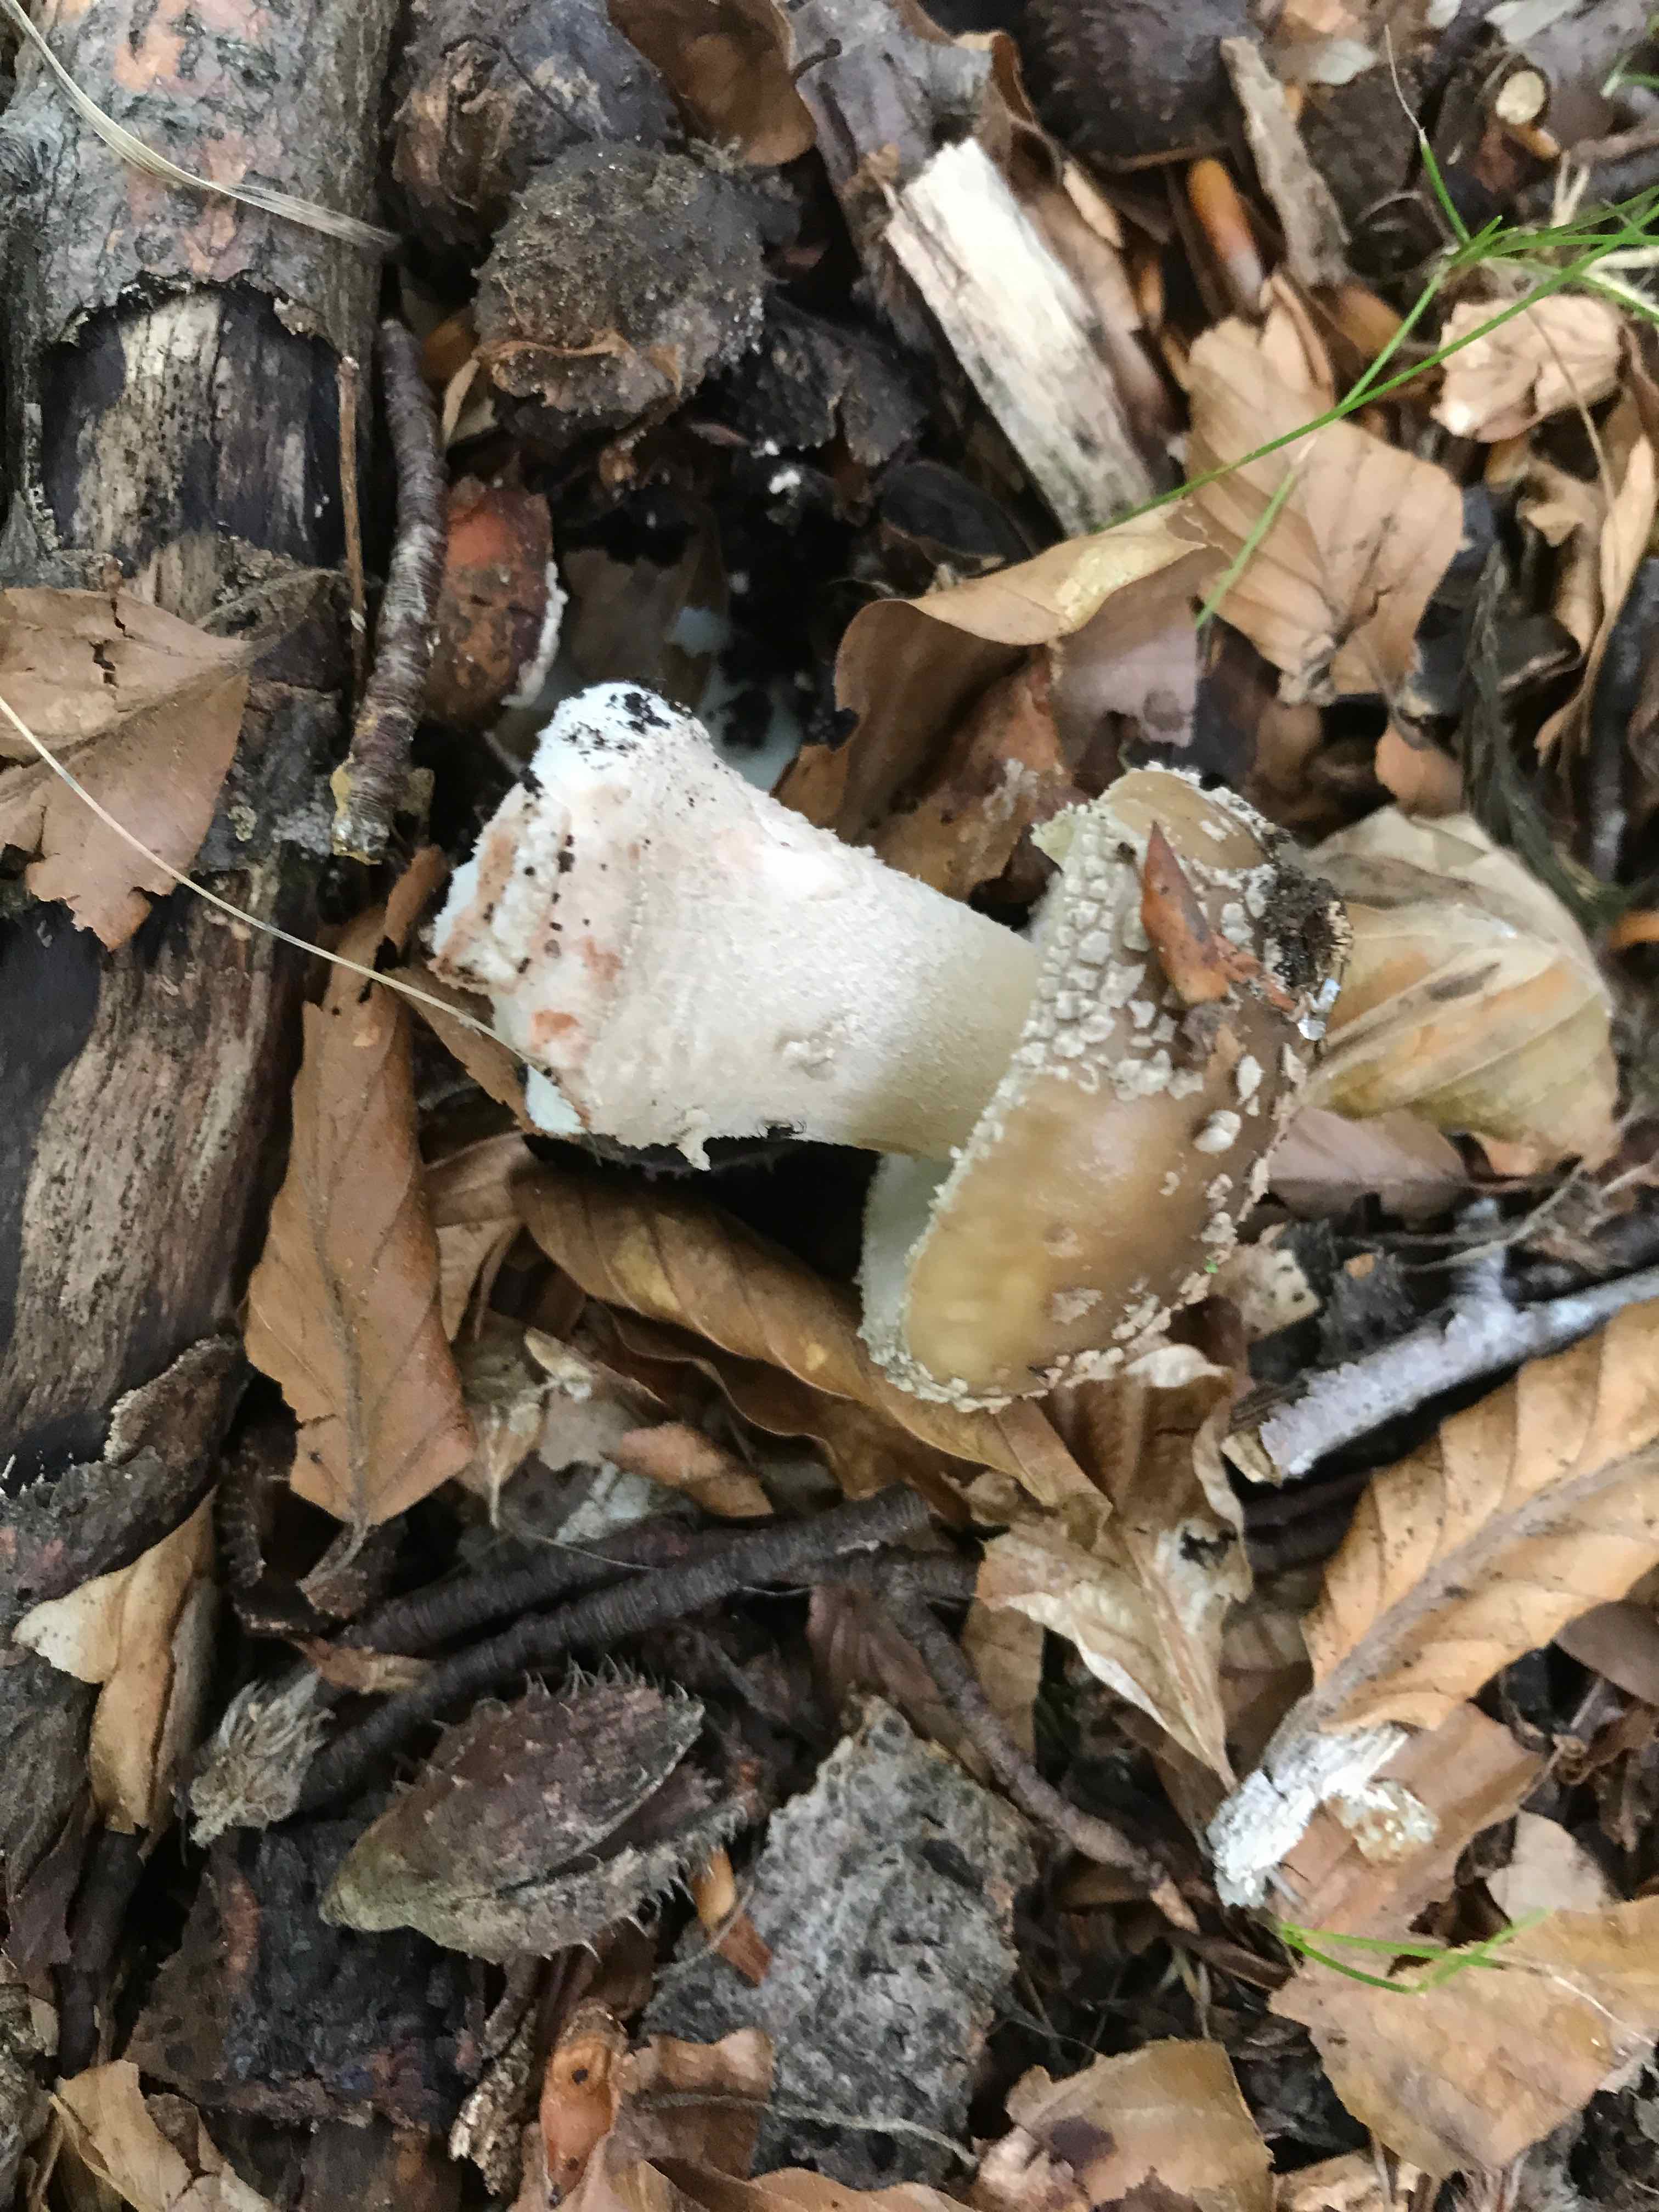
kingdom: Fungi
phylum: Basidiomycota
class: Agaricomycetes
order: Agaricales
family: Amanitaceae
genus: Amanita
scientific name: Amanita
